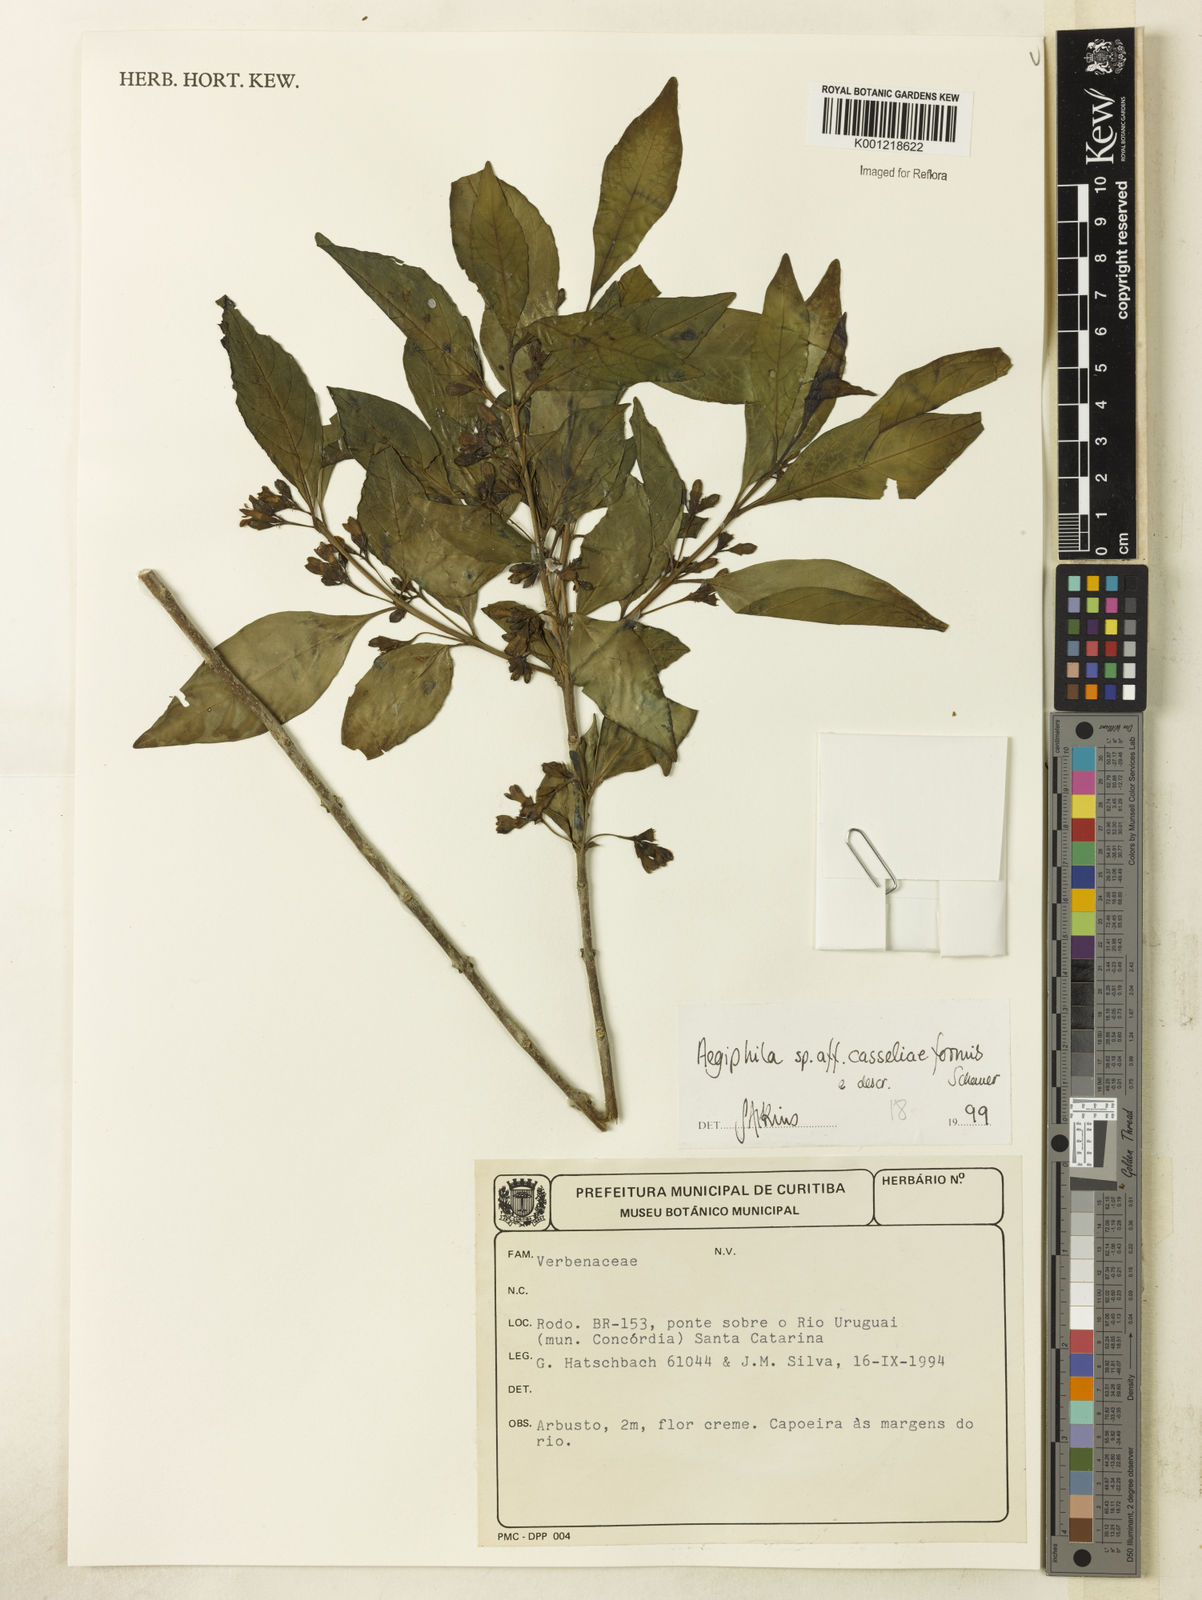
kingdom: Plantae
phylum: Tracheophyta
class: Magnoliopsida
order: Lamiales
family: Lamiaceae
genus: Aegiphila
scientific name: Aegiphila casseliiformis
